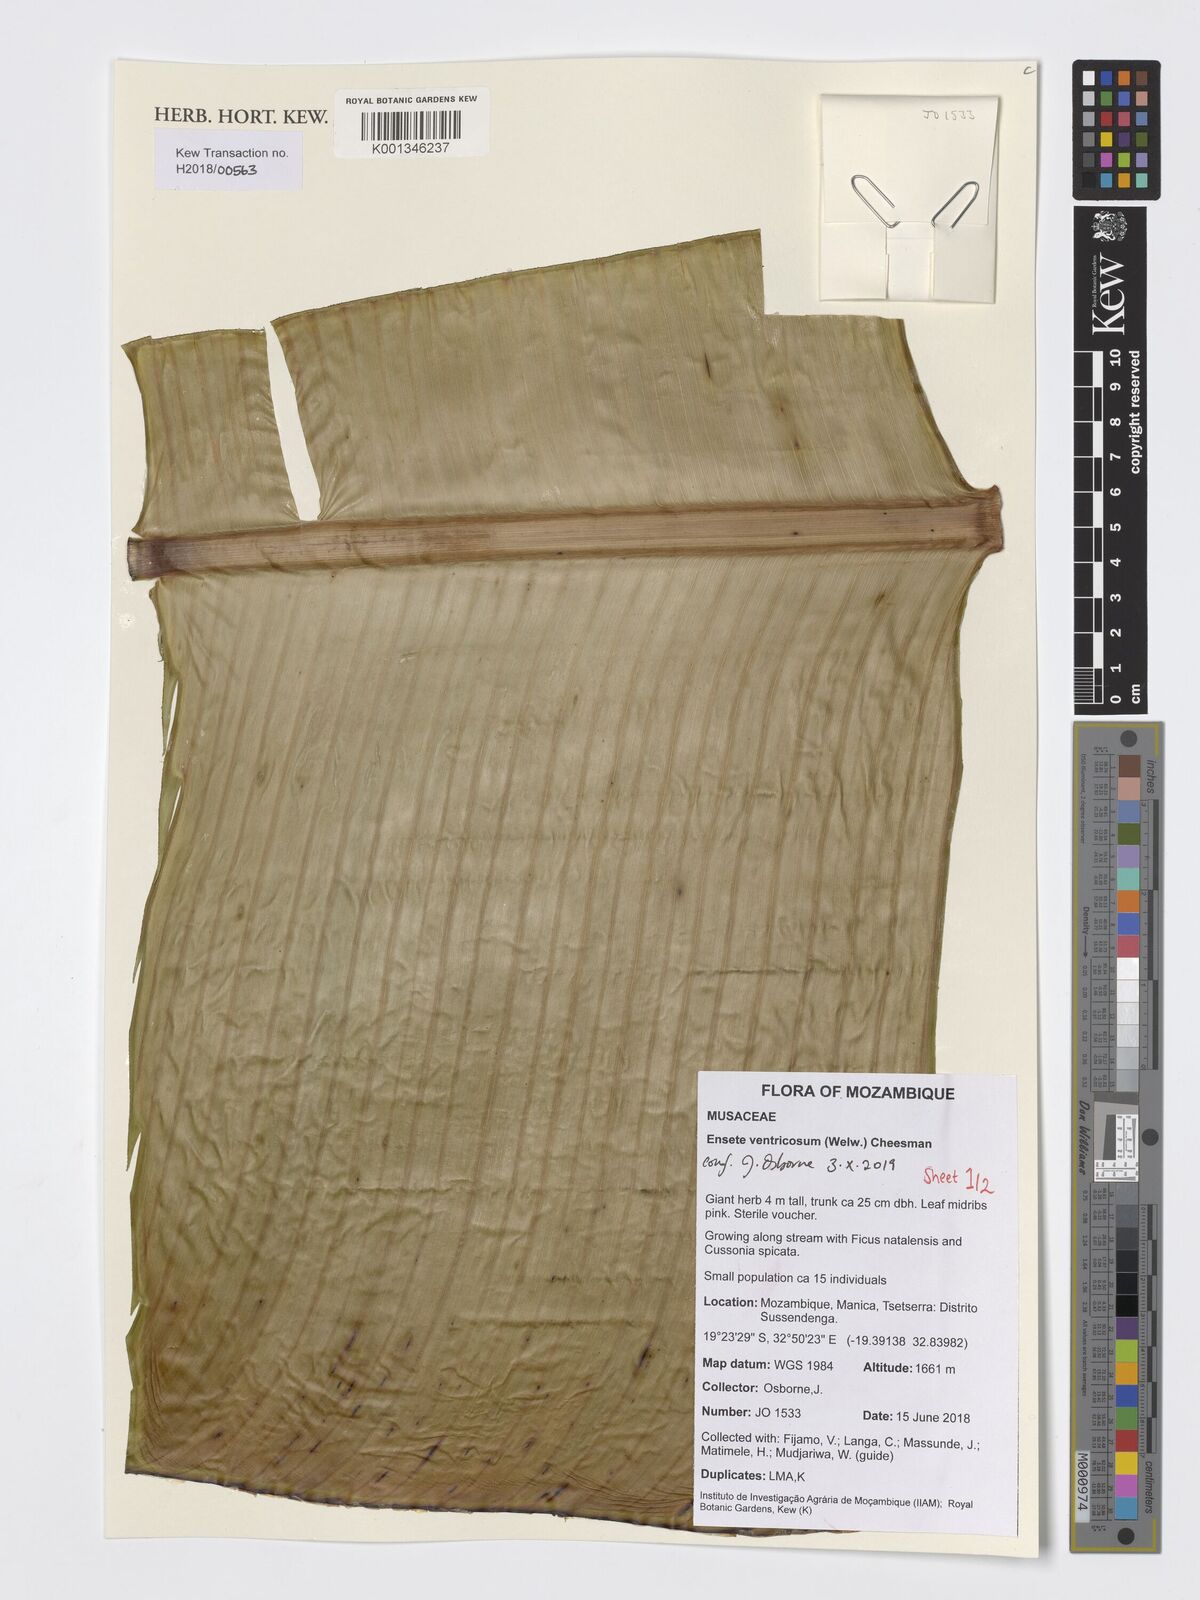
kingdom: Plantae
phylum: Tracheophyta
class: Liliopsida
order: Zingiberales
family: Musaceae
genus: Ensete
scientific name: Ensete ventricosum
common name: Abyssinian banana
